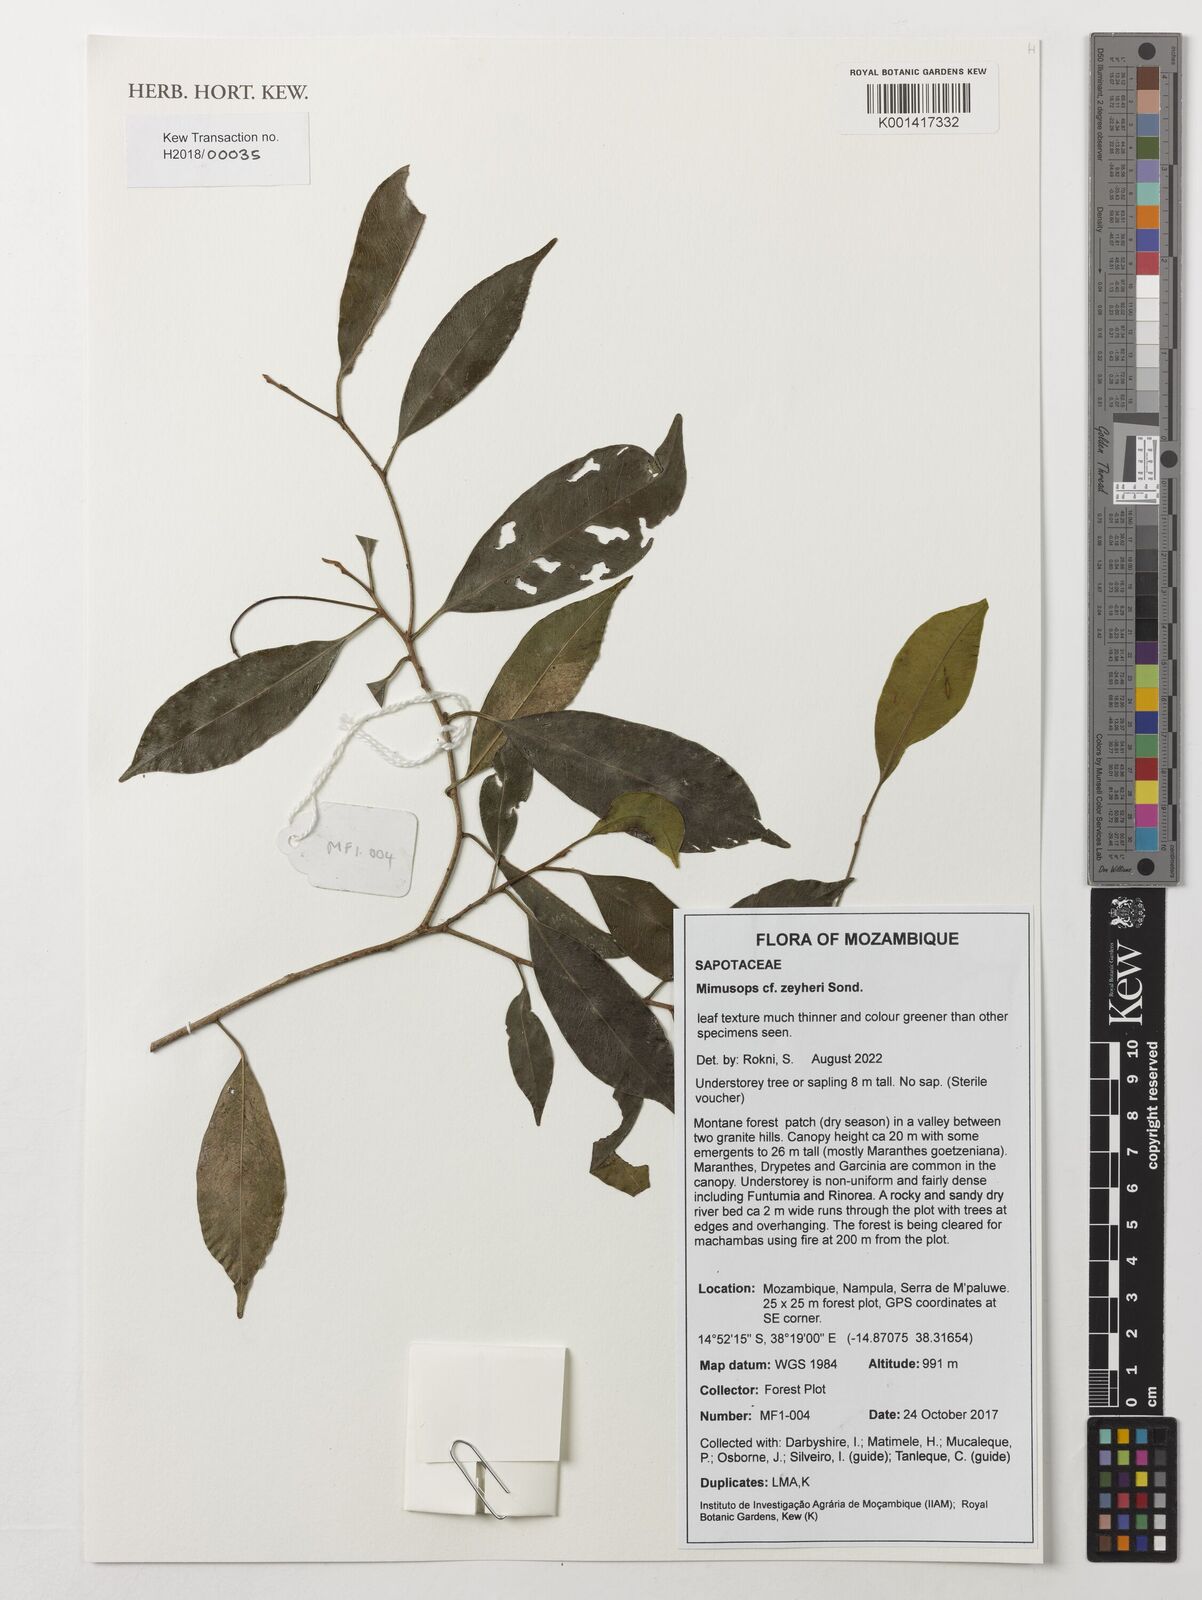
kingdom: Plantae
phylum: Tracheophyta
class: Magnoliopsida
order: Ericales
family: Sapotaceae
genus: Mimusops
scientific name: Mimusops zeyheri
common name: Transvaal red milkwood
